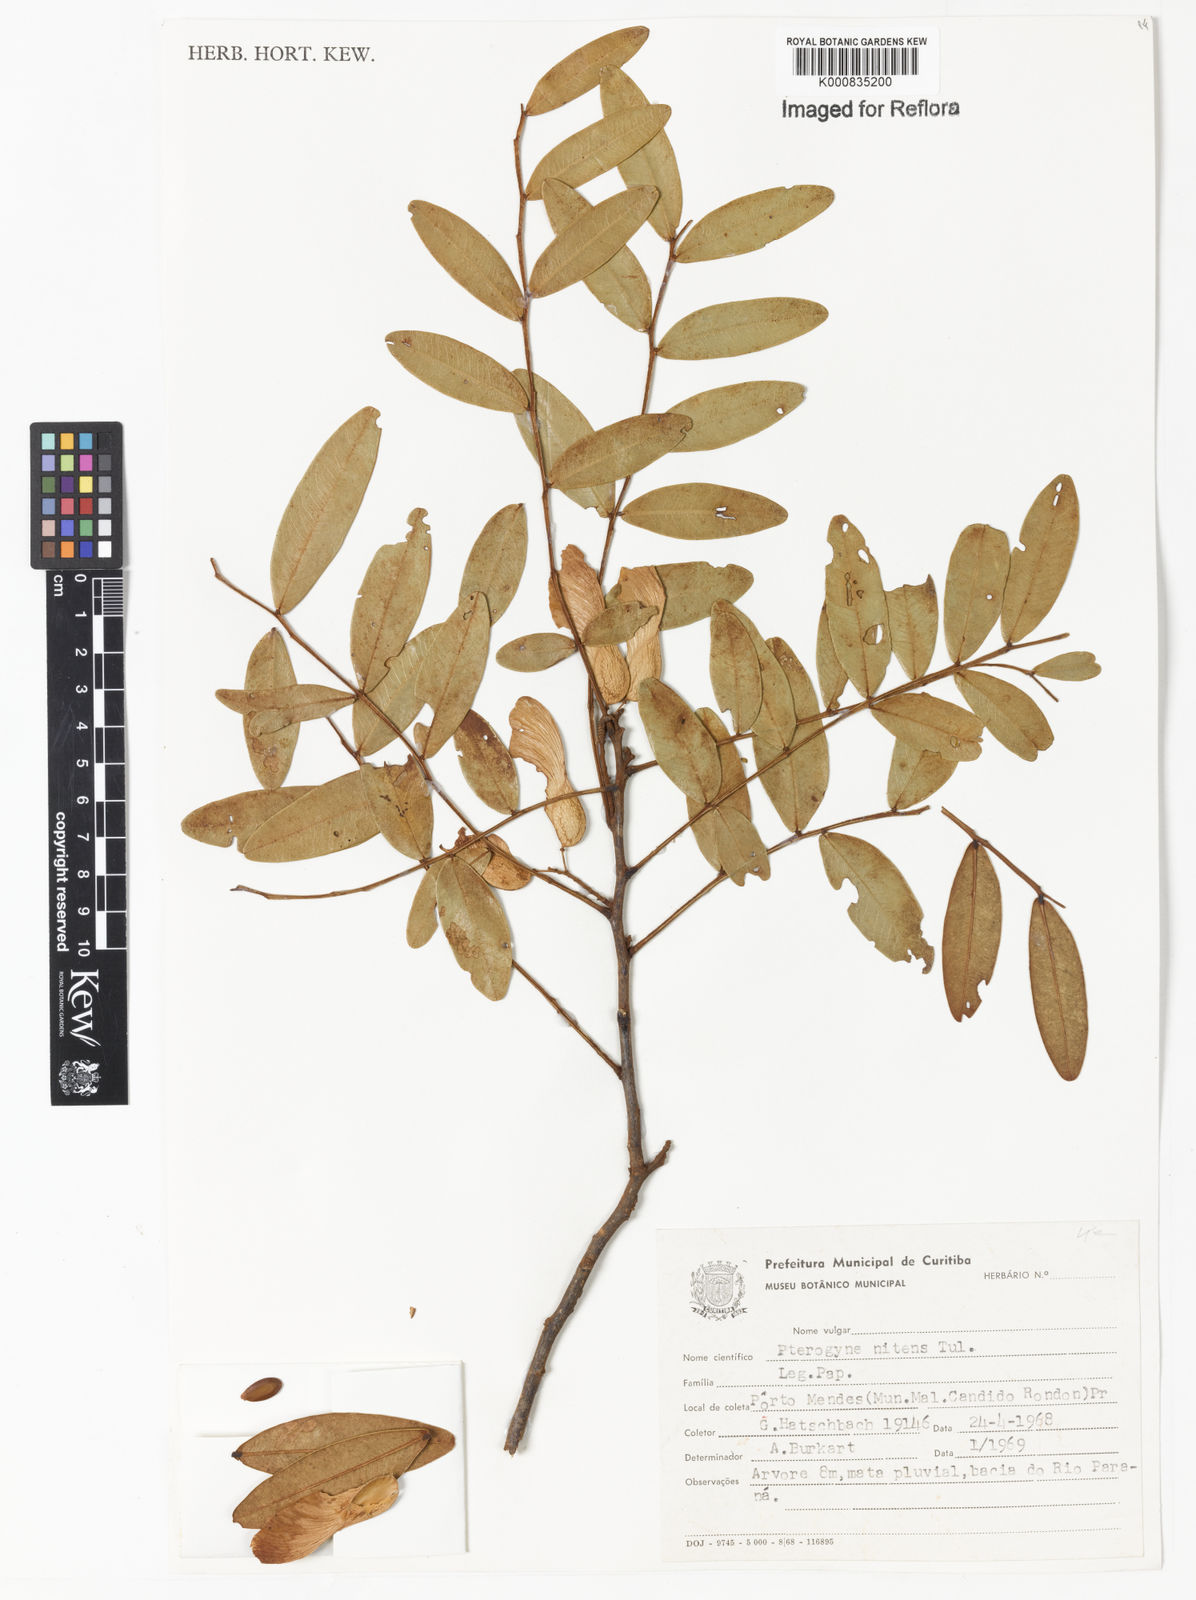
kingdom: Plantae
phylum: Tracheophyta
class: Magnoliopsida
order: Fabales
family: Fabaceae
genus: Pterogyne
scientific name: Pterogyne nitens
